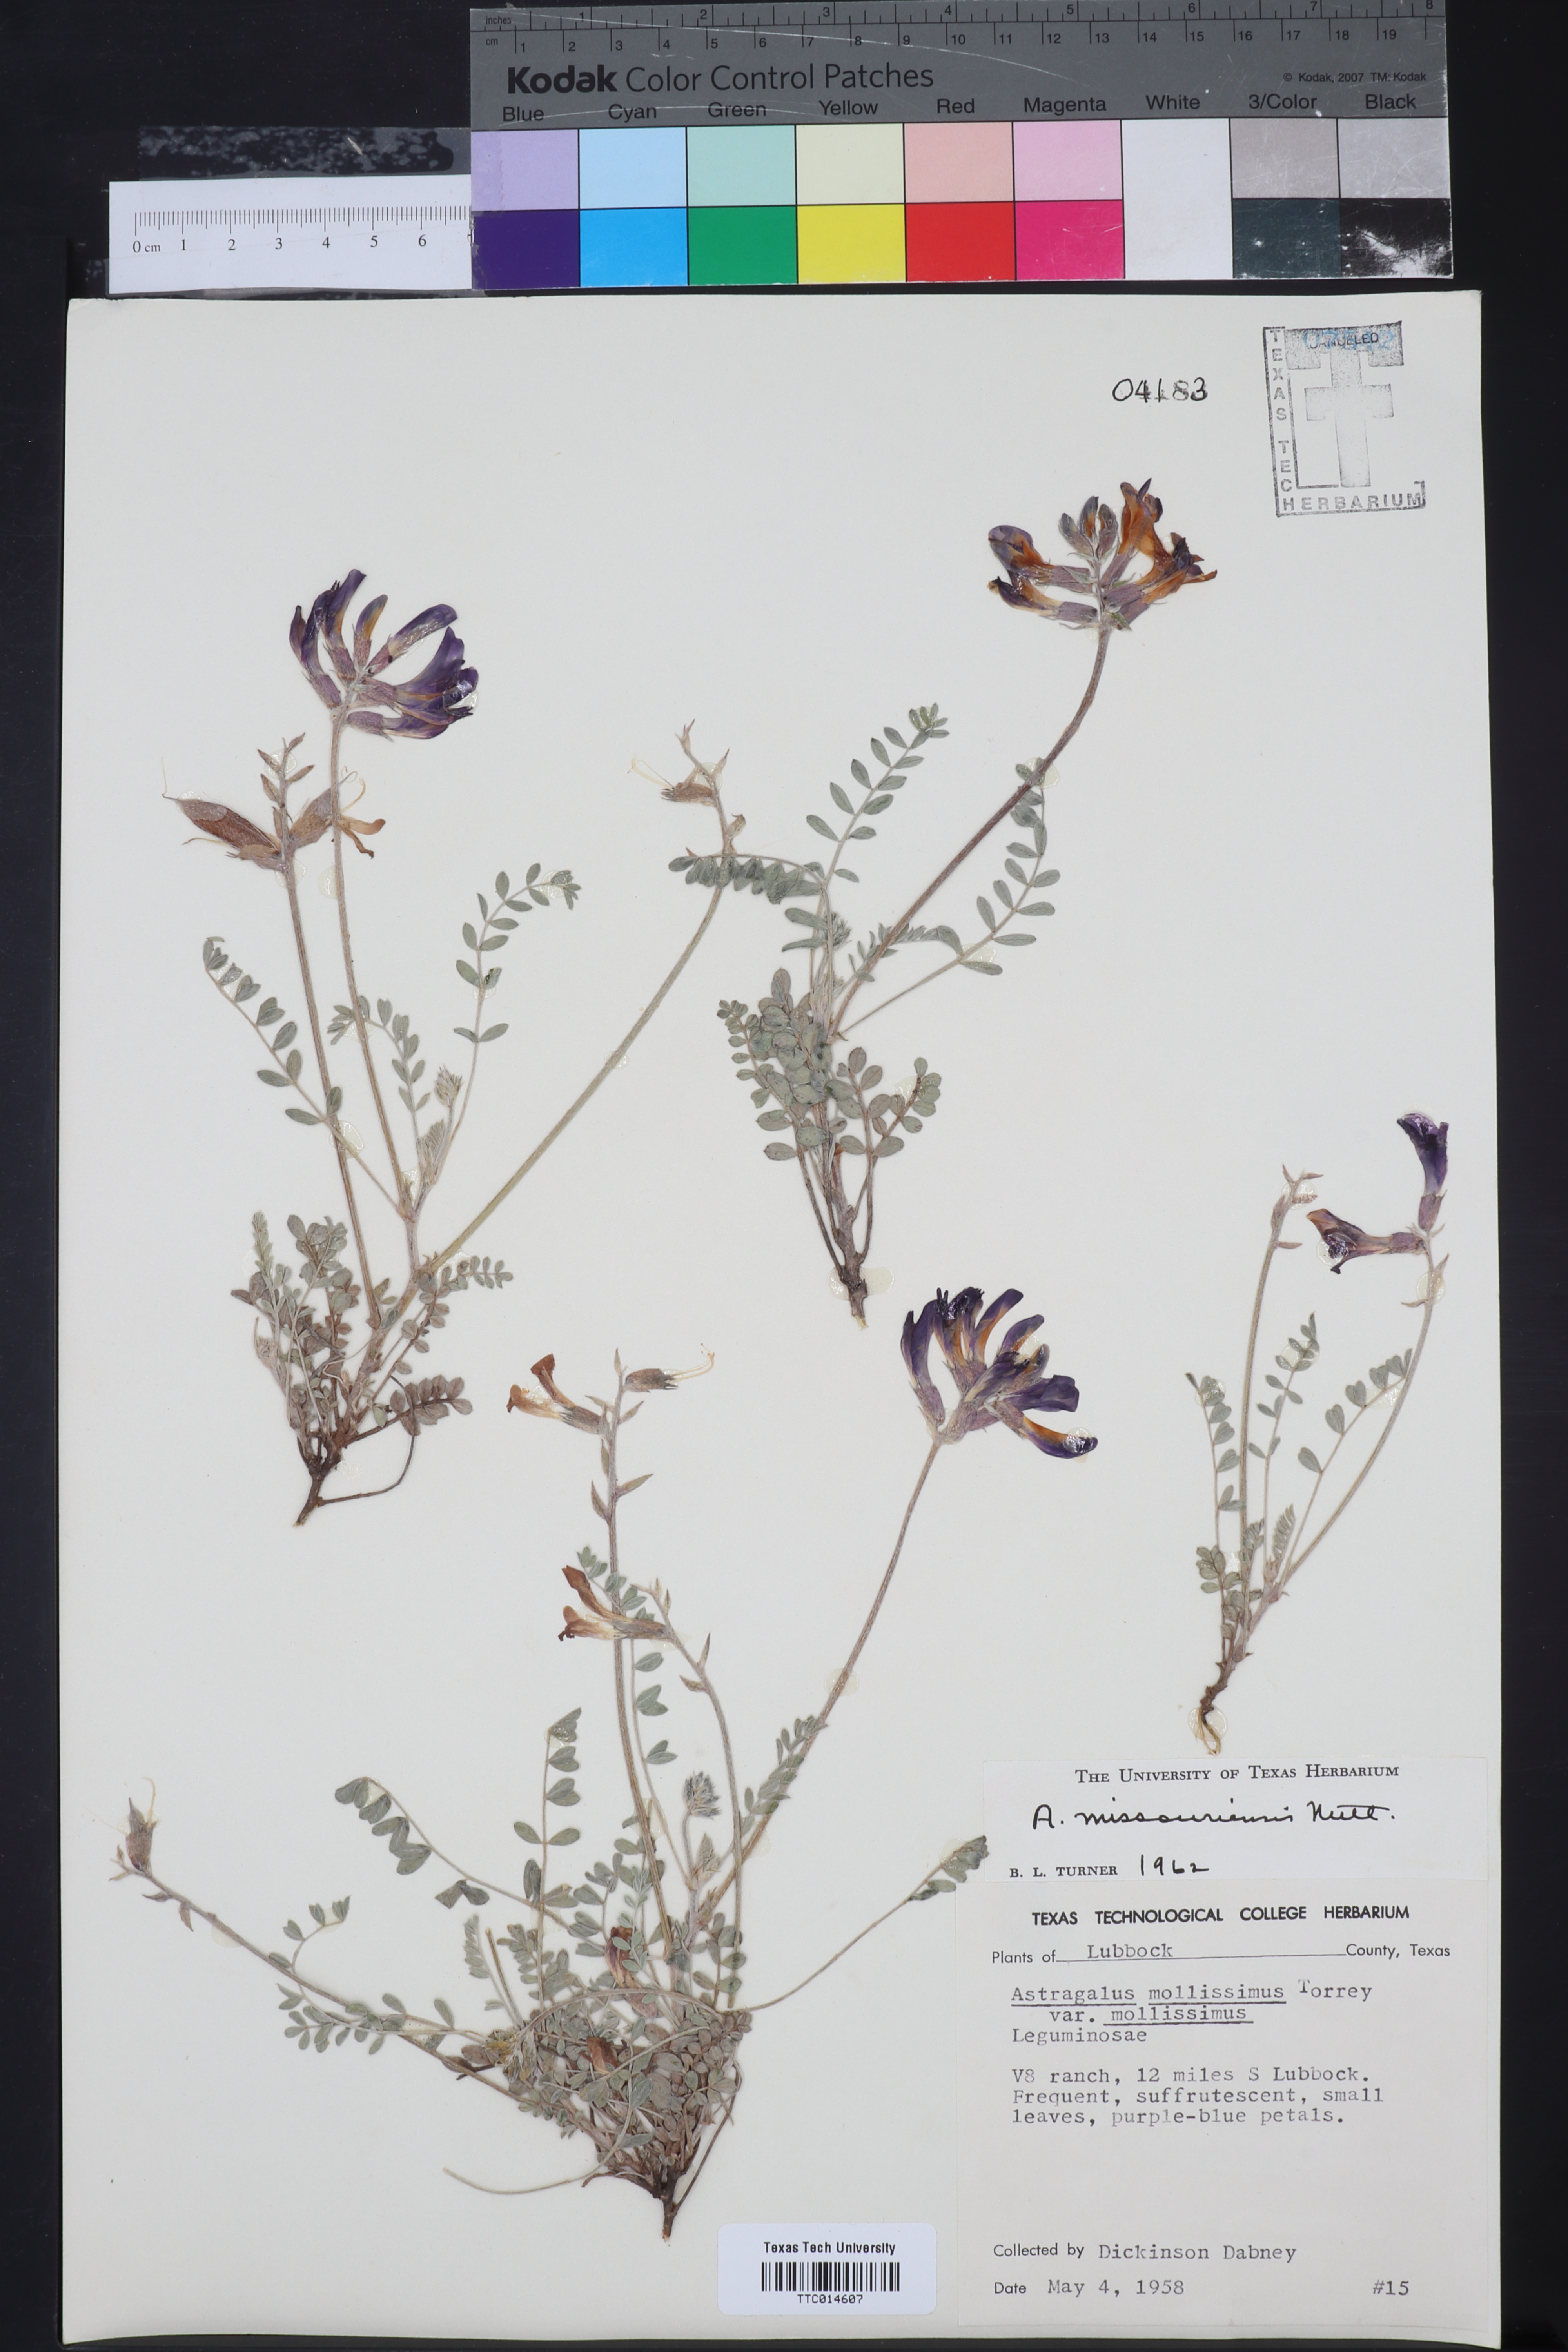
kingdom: Plantae
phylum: Tracheophyta
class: Magnoliopsida
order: Fabales
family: Fabaceae
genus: Astragalus
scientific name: Astragalus missouriensis
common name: Missouri milk-vetch
